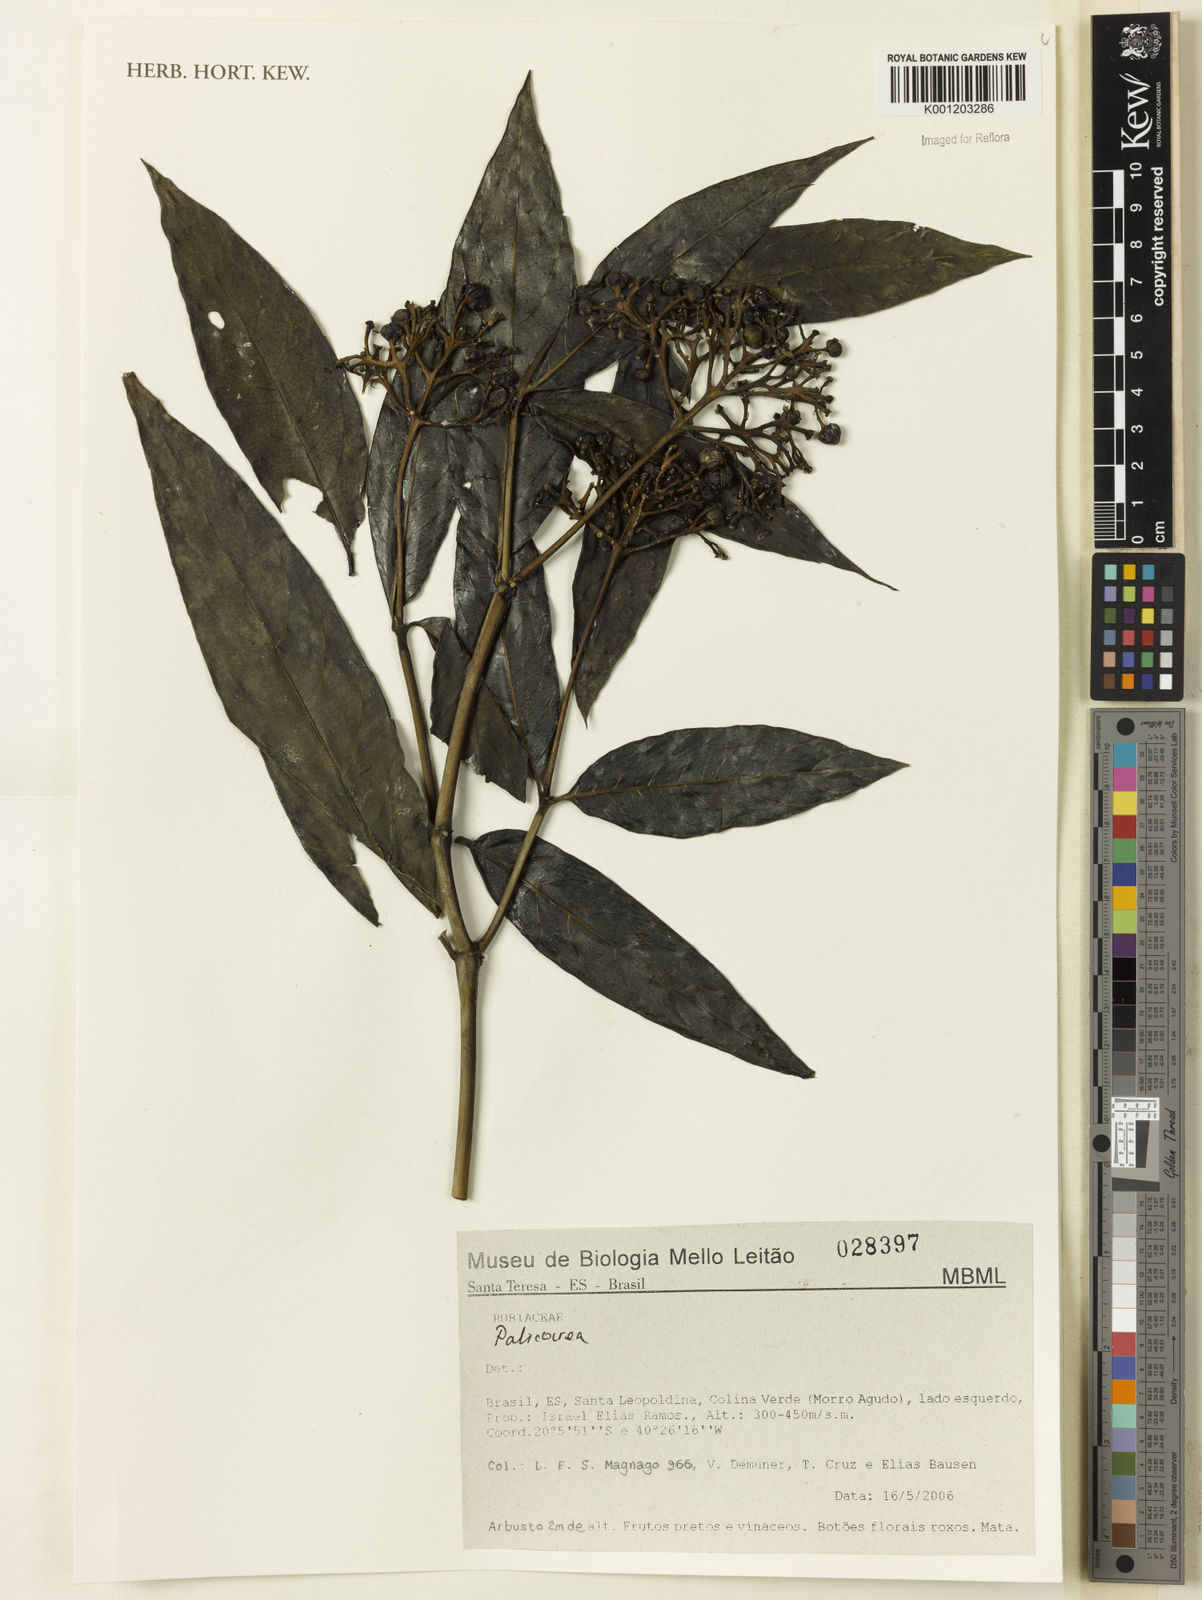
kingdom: Plantae
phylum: Tracheophyta
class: Magnoliopsida
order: Gentianales
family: Rubiaceae
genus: Palicourea
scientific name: Palicourea
